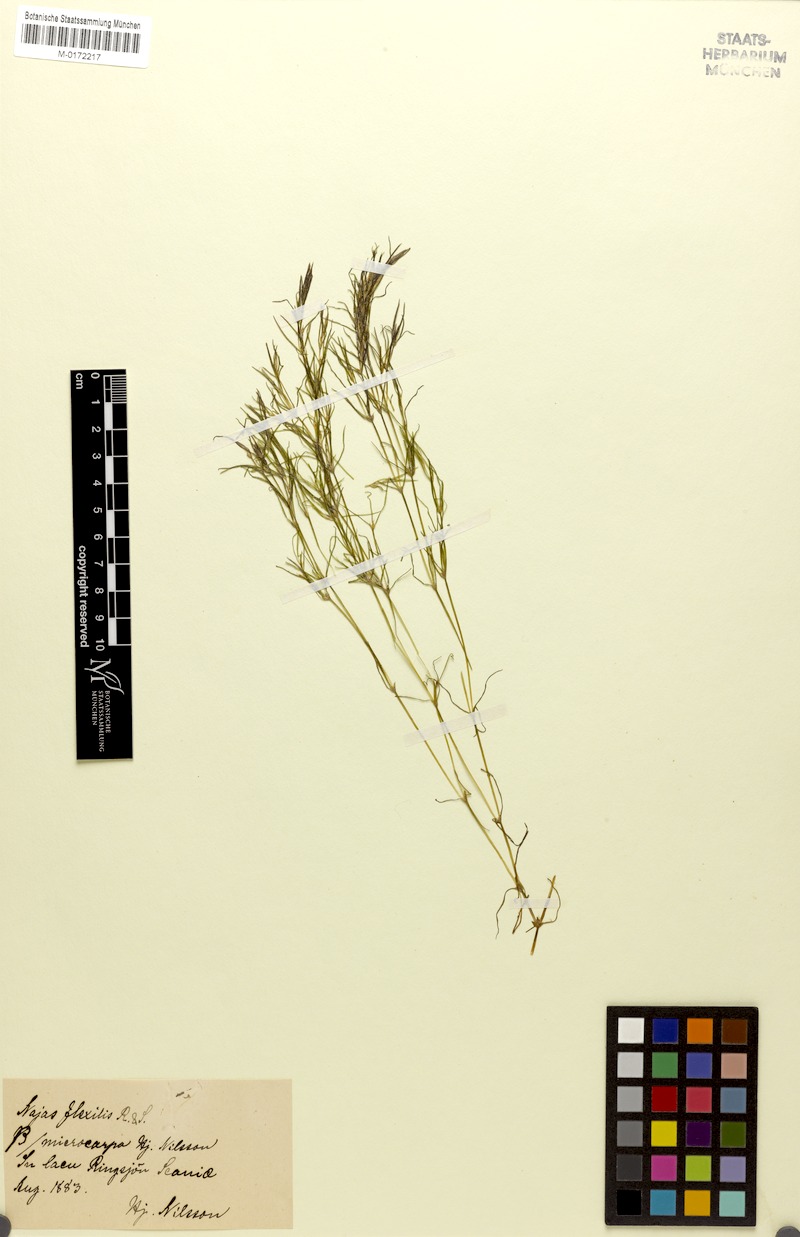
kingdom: Plantae
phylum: Tracheophyta
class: Liliopsida
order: Alismatales
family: Hydrocharitaceae
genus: Najas
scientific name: Najas flexilis
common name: Slender naiad
